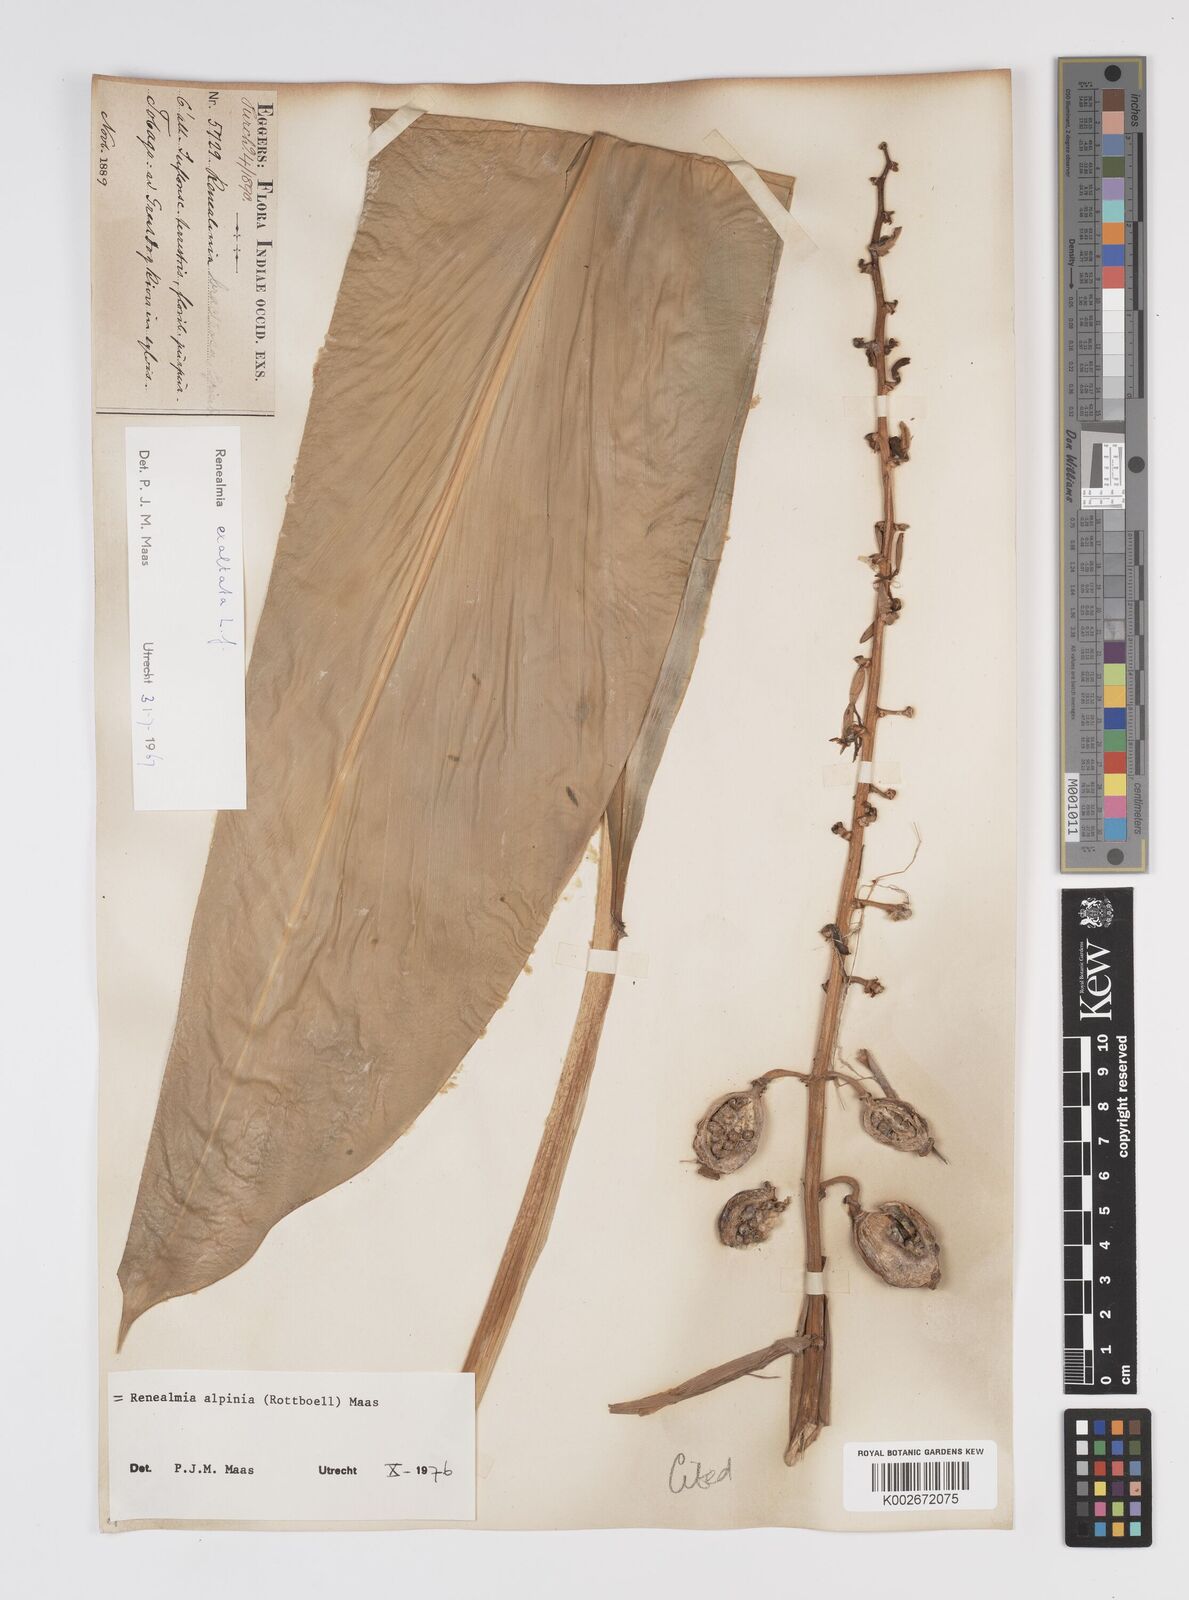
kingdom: Plantae
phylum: Tracheophyta
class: Liliopsida
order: Zingiberales
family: Zingiberaceae
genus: Renealmia
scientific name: Renealmia alpinia
